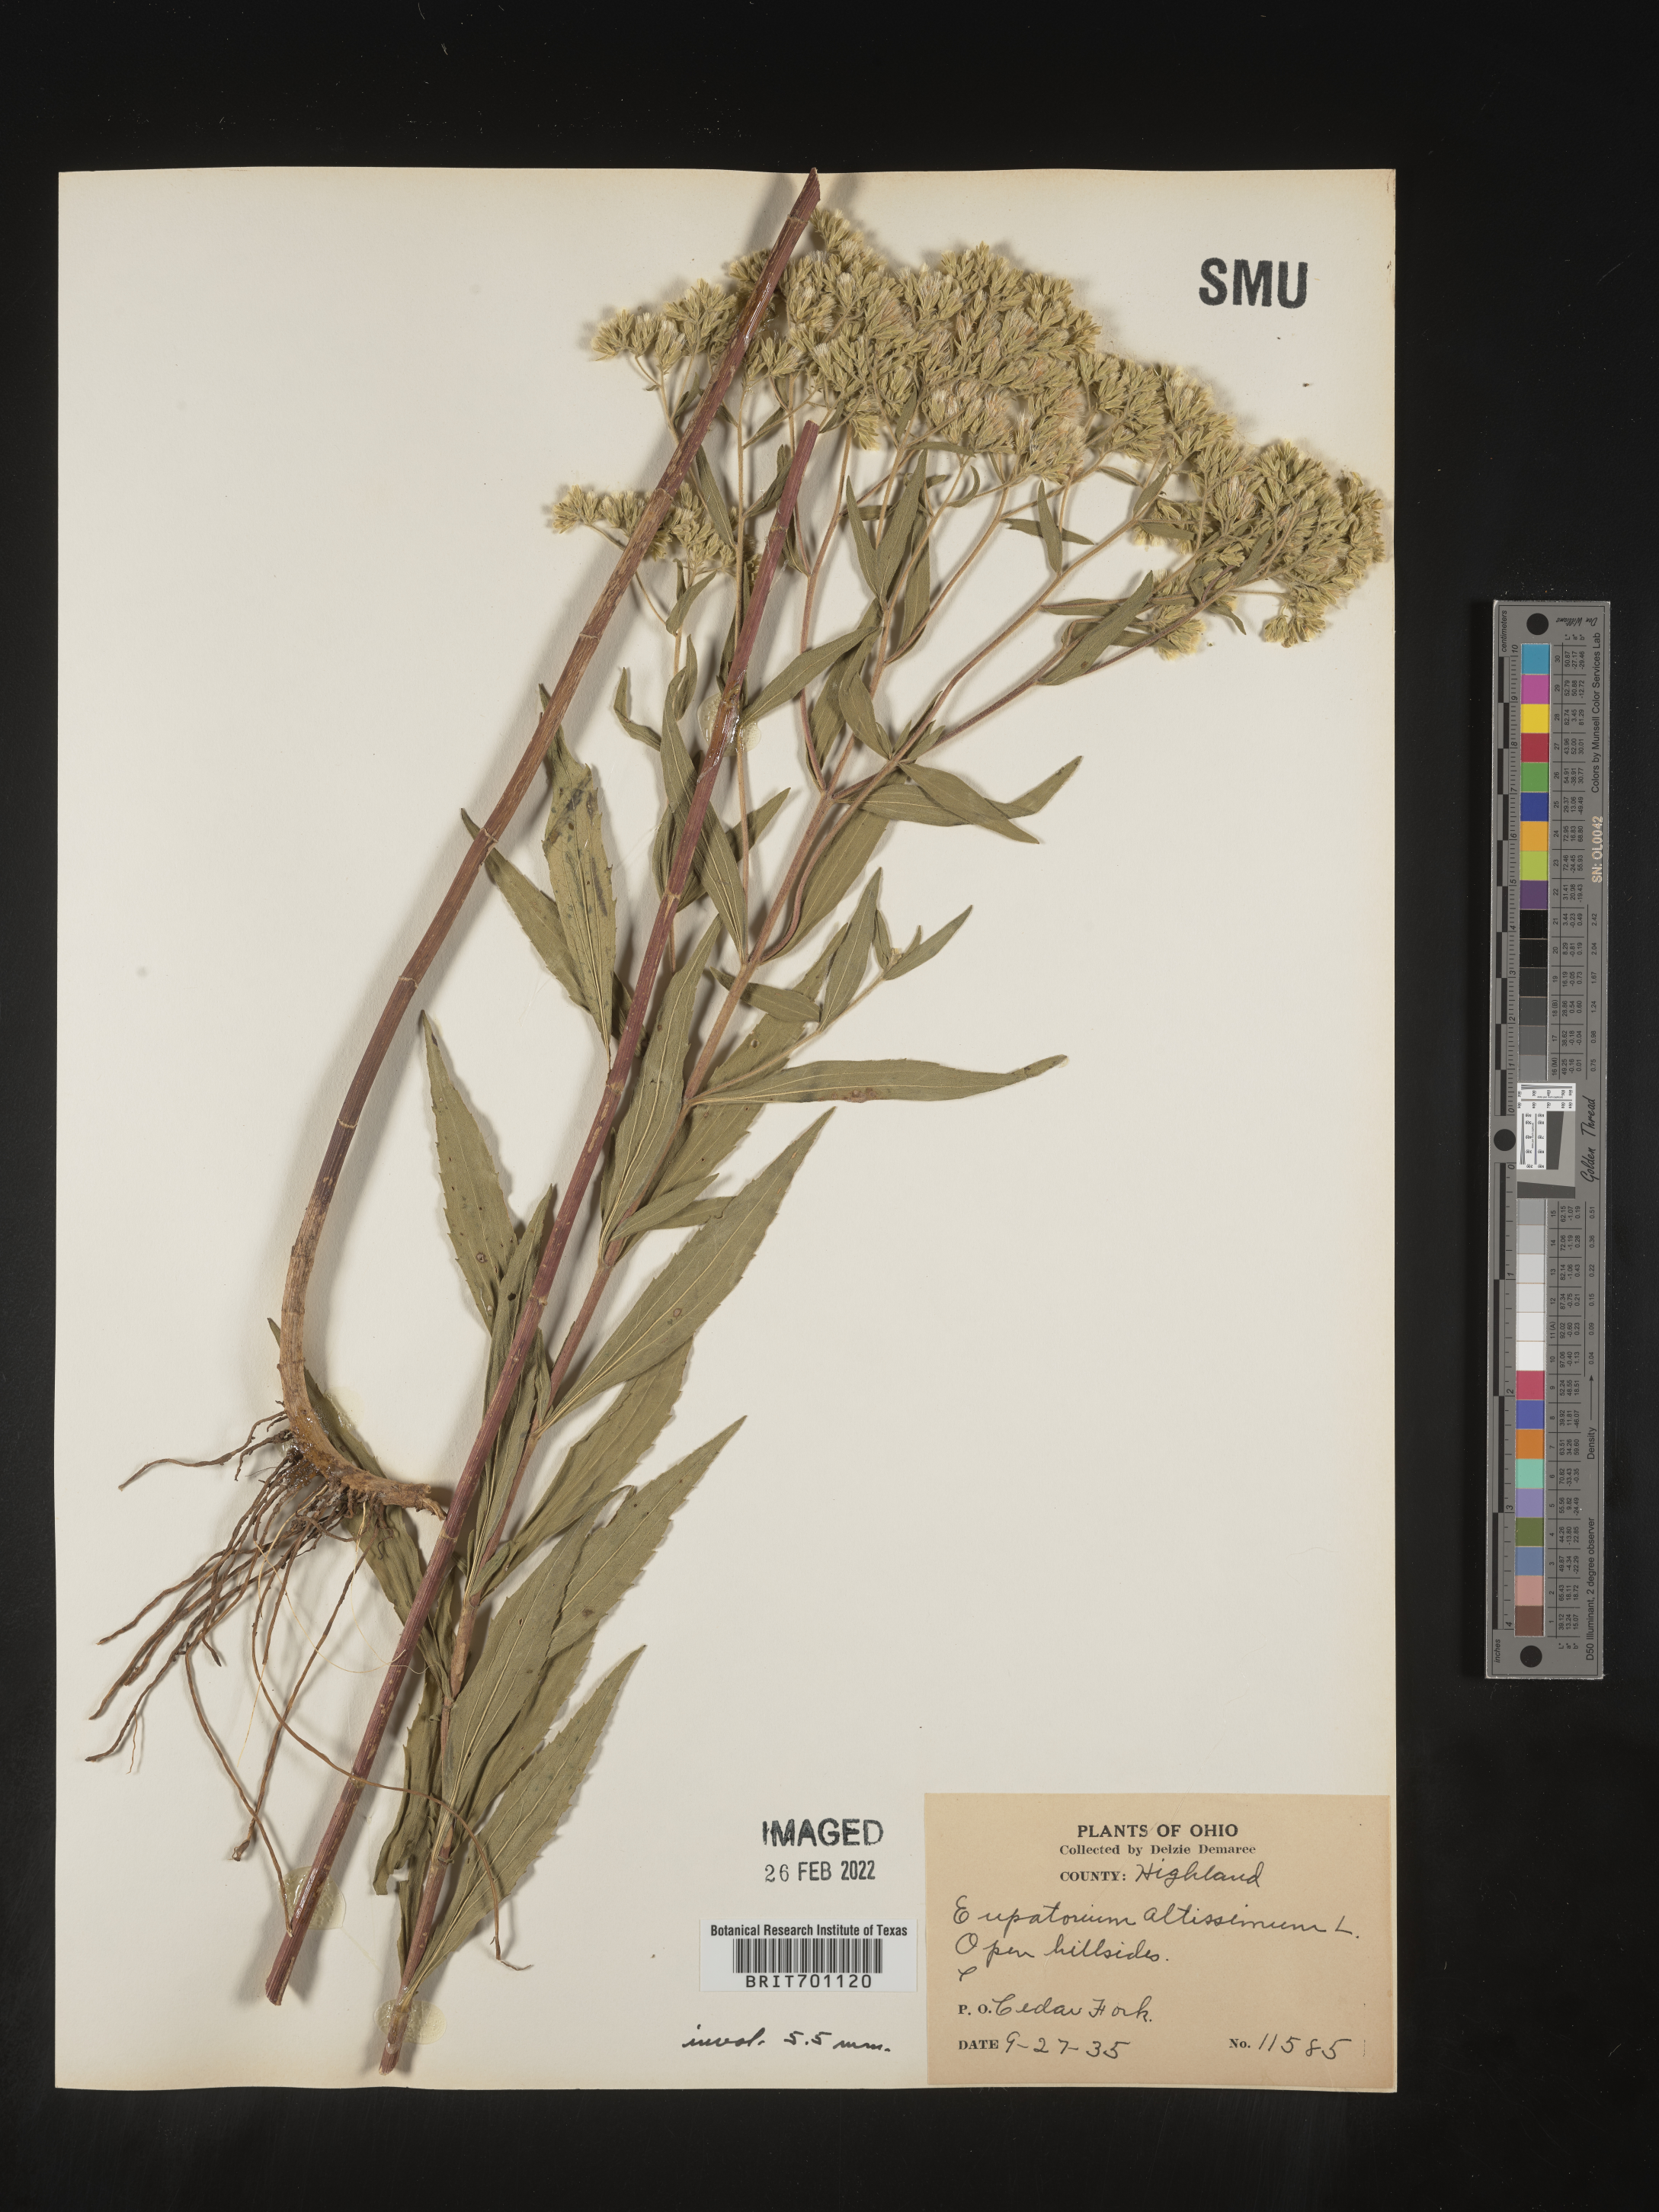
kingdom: Plantae
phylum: Tracheophyta
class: Magnoliopsida
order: Asterales
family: Asteraceae
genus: Eupatorium
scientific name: Eupatorium altissimum
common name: Tall thoroughwort
